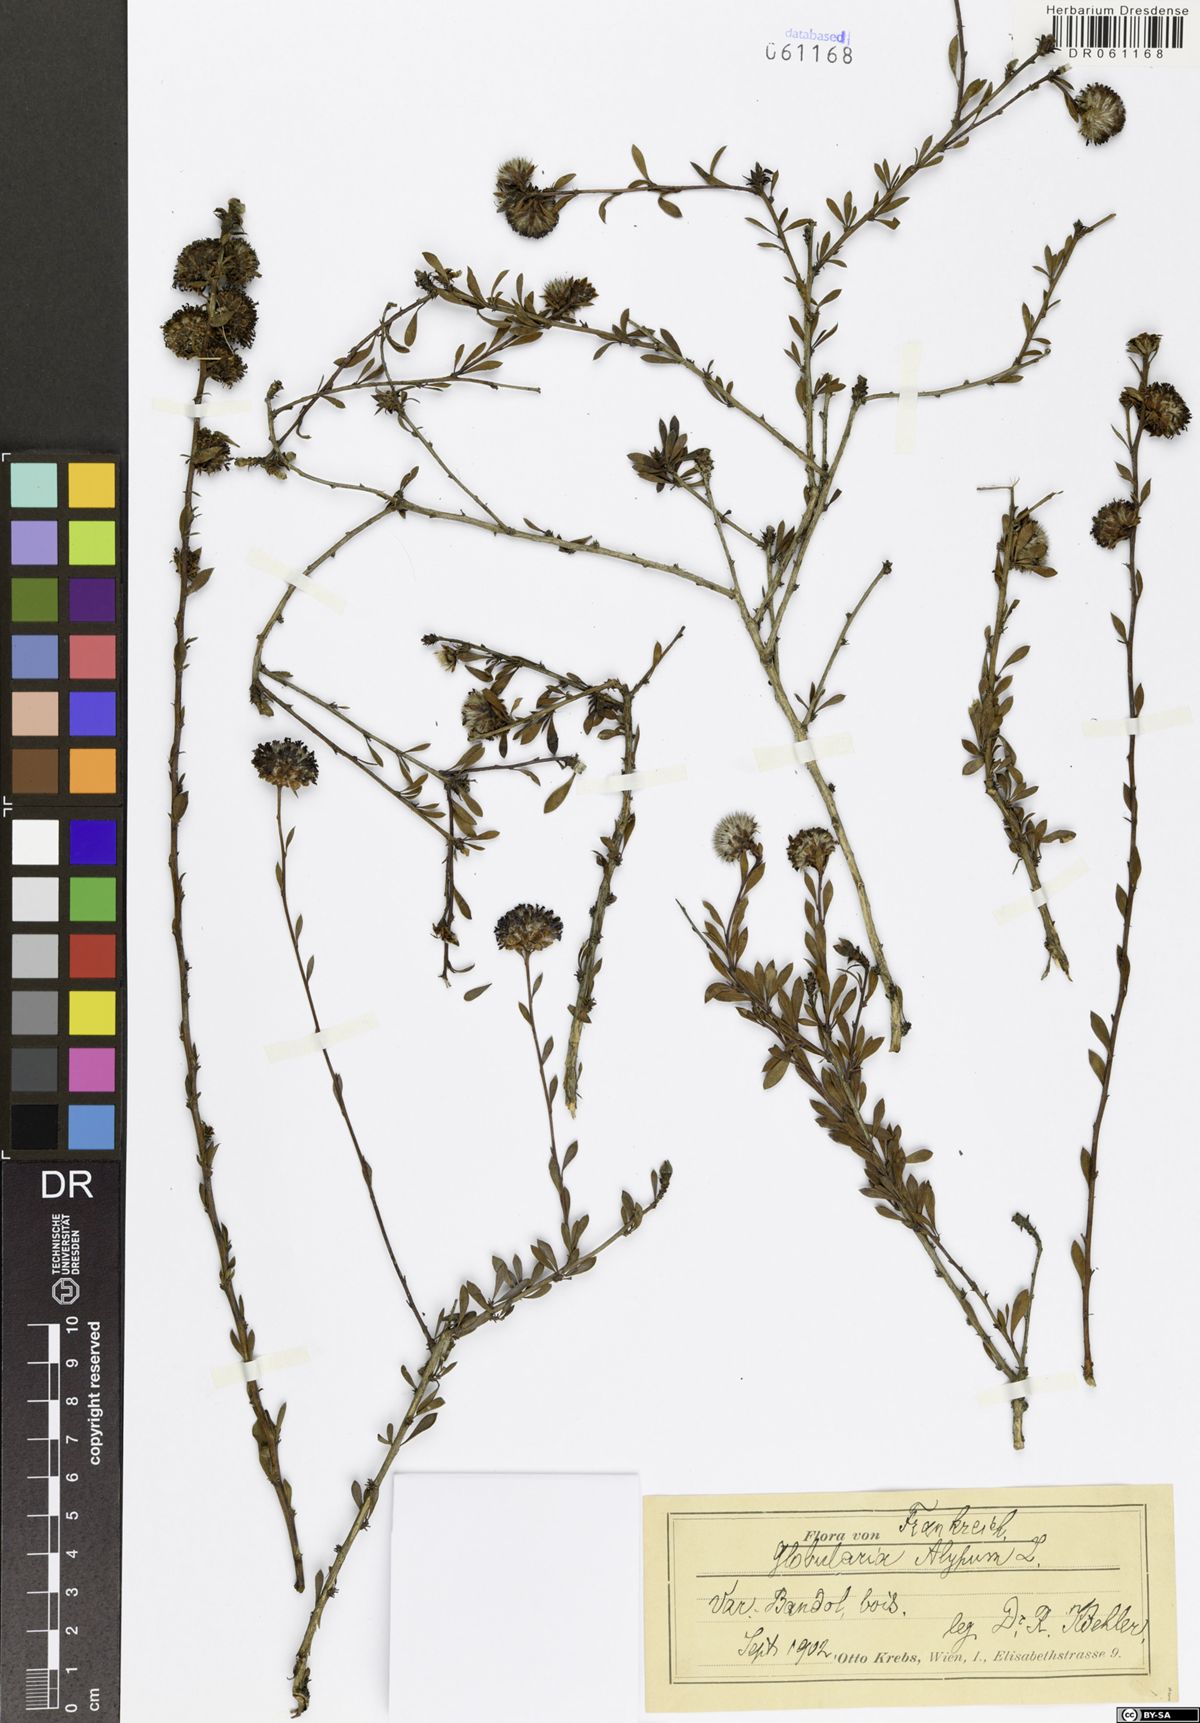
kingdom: Plantae
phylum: Tracheophyta
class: Magnoliopsida
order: Lamiales
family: Plantaginaceae
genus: Globularia
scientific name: Globularia alypum
